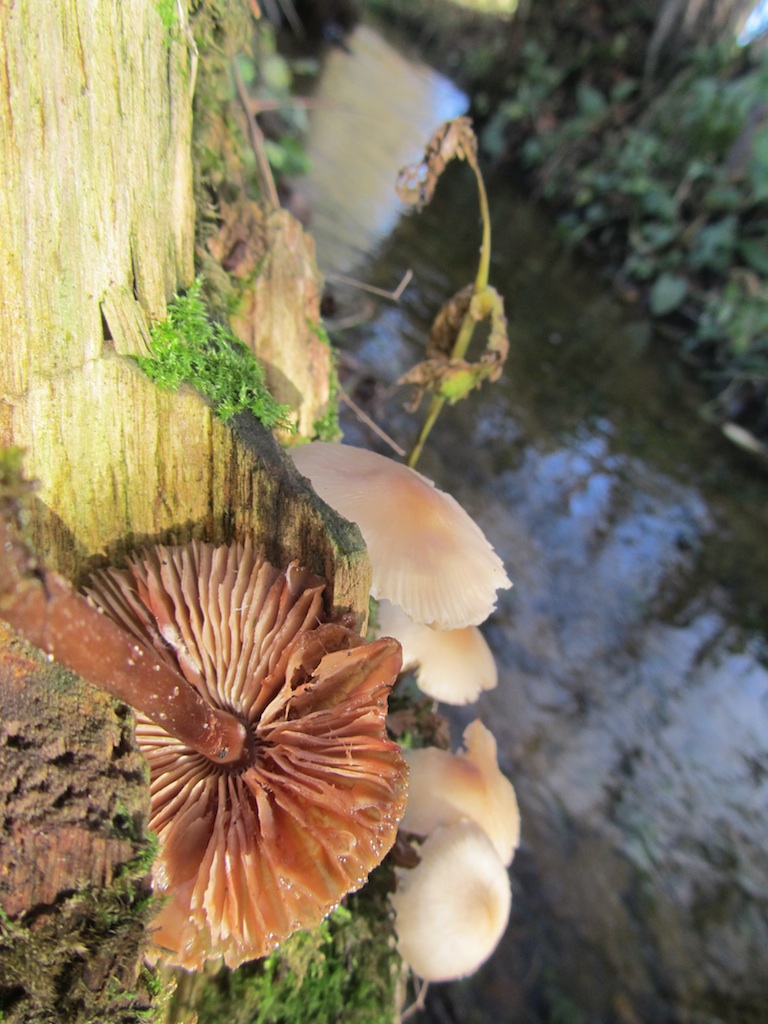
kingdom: Fungi
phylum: Basidiomycota
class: Agaricomycetes
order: Agaricales
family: Physalacriaceae
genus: Hymenopellis
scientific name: Hymenopellis radicata
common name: almindelig pælerodshat
